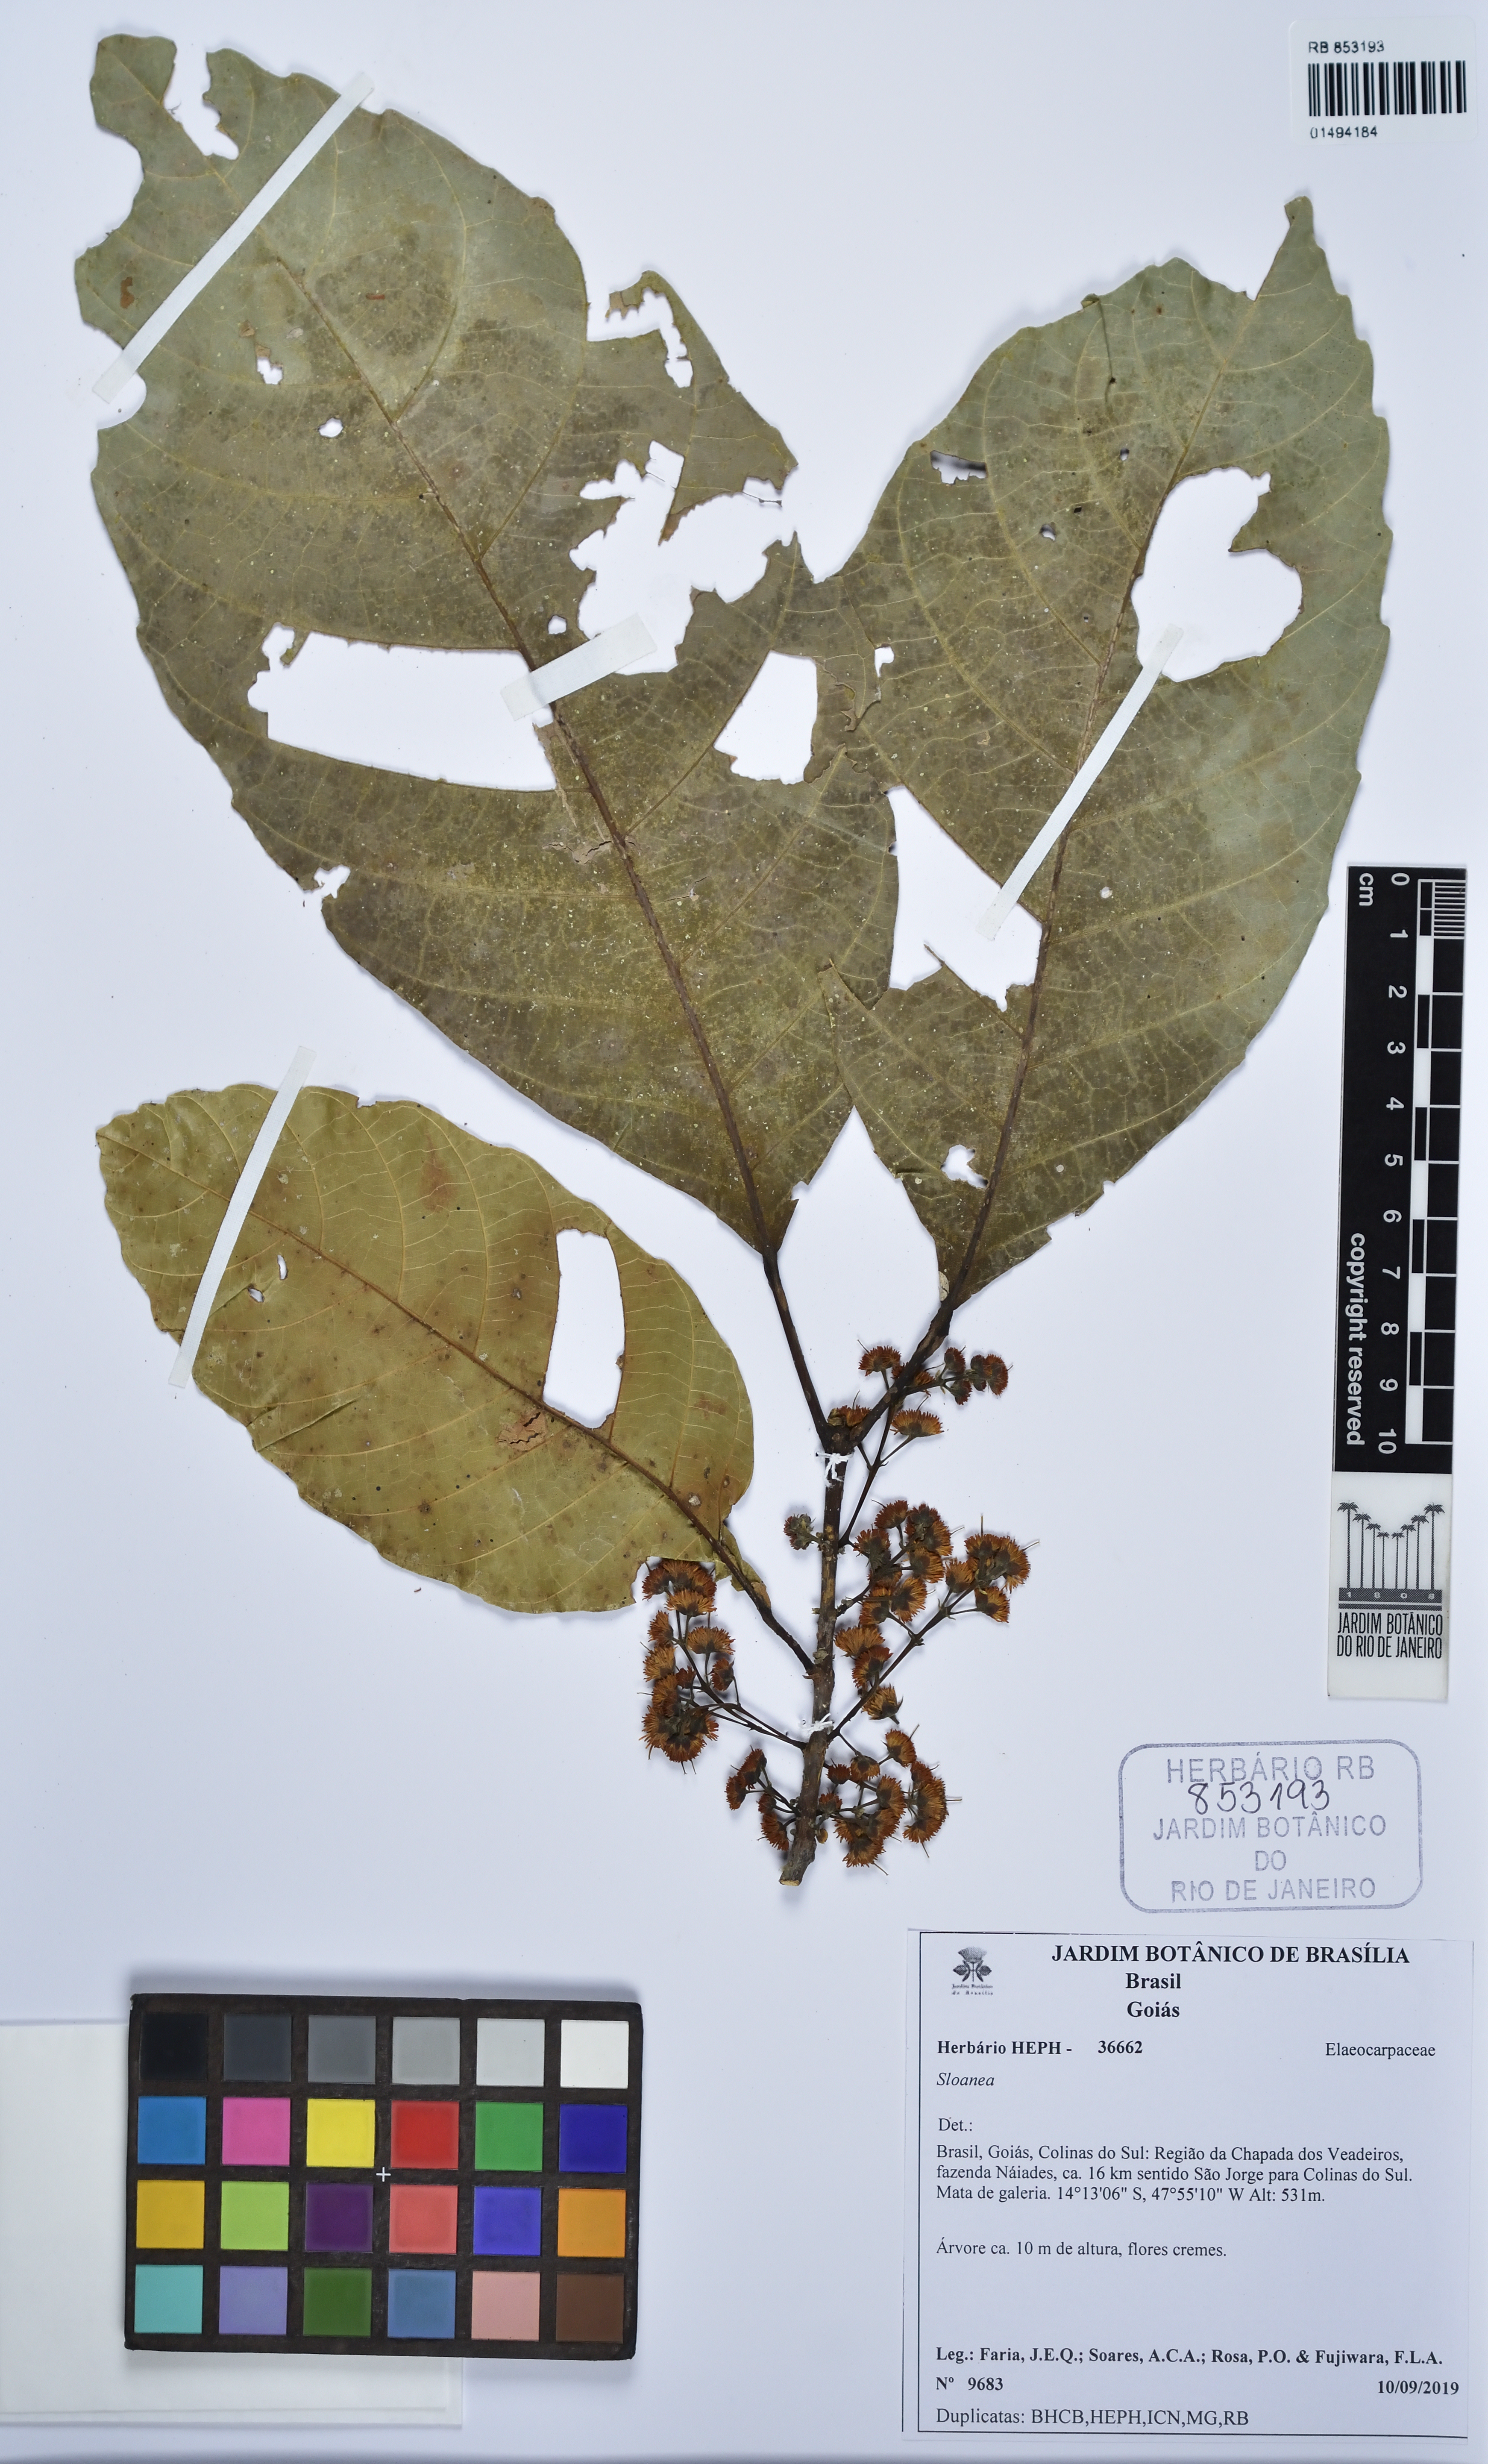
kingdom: Plantae
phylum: Tracheophyta
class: Magnoliopsida
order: Oxalidales
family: Elaeocarpaceae
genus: Sloanea
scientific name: Sloanea
